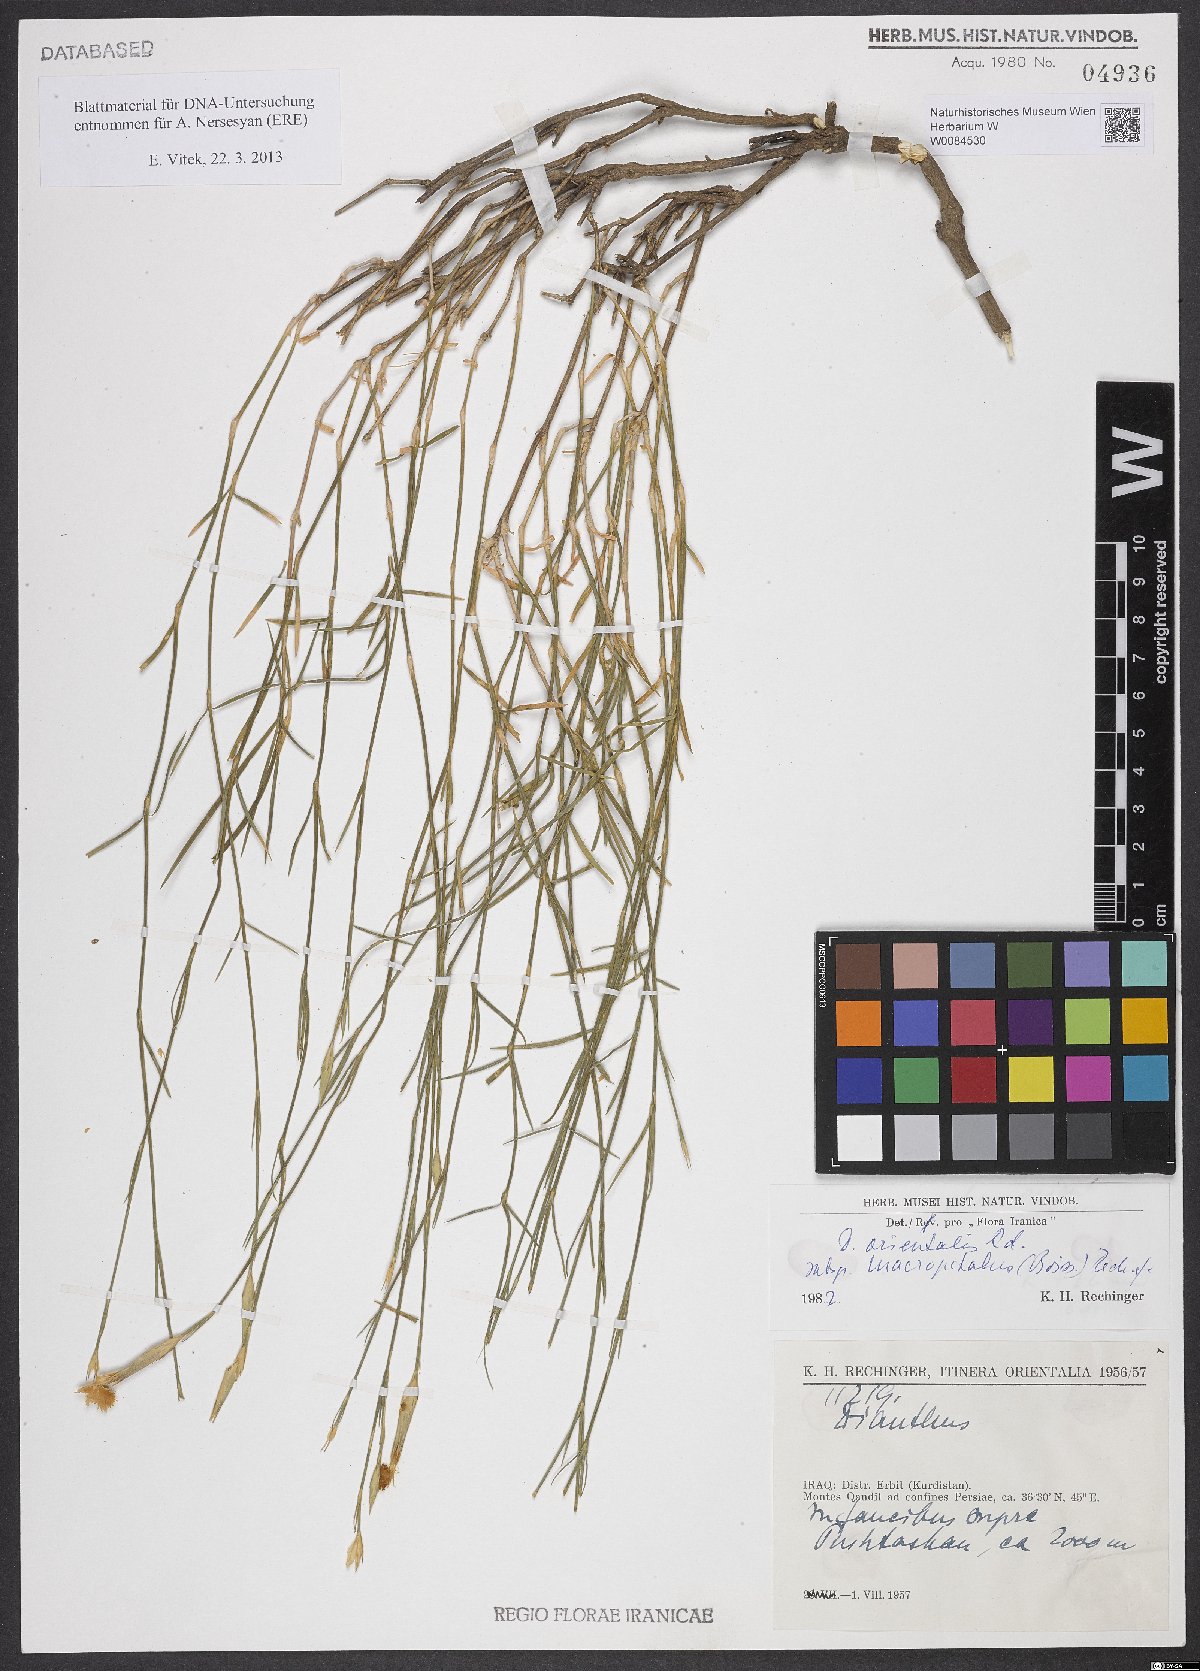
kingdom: Plantae
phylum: Tracheophyta
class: Magnoliopsida
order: Caryophyllales
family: Caryophyllaceae
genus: Dianthus
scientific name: Dianthus orientalis
